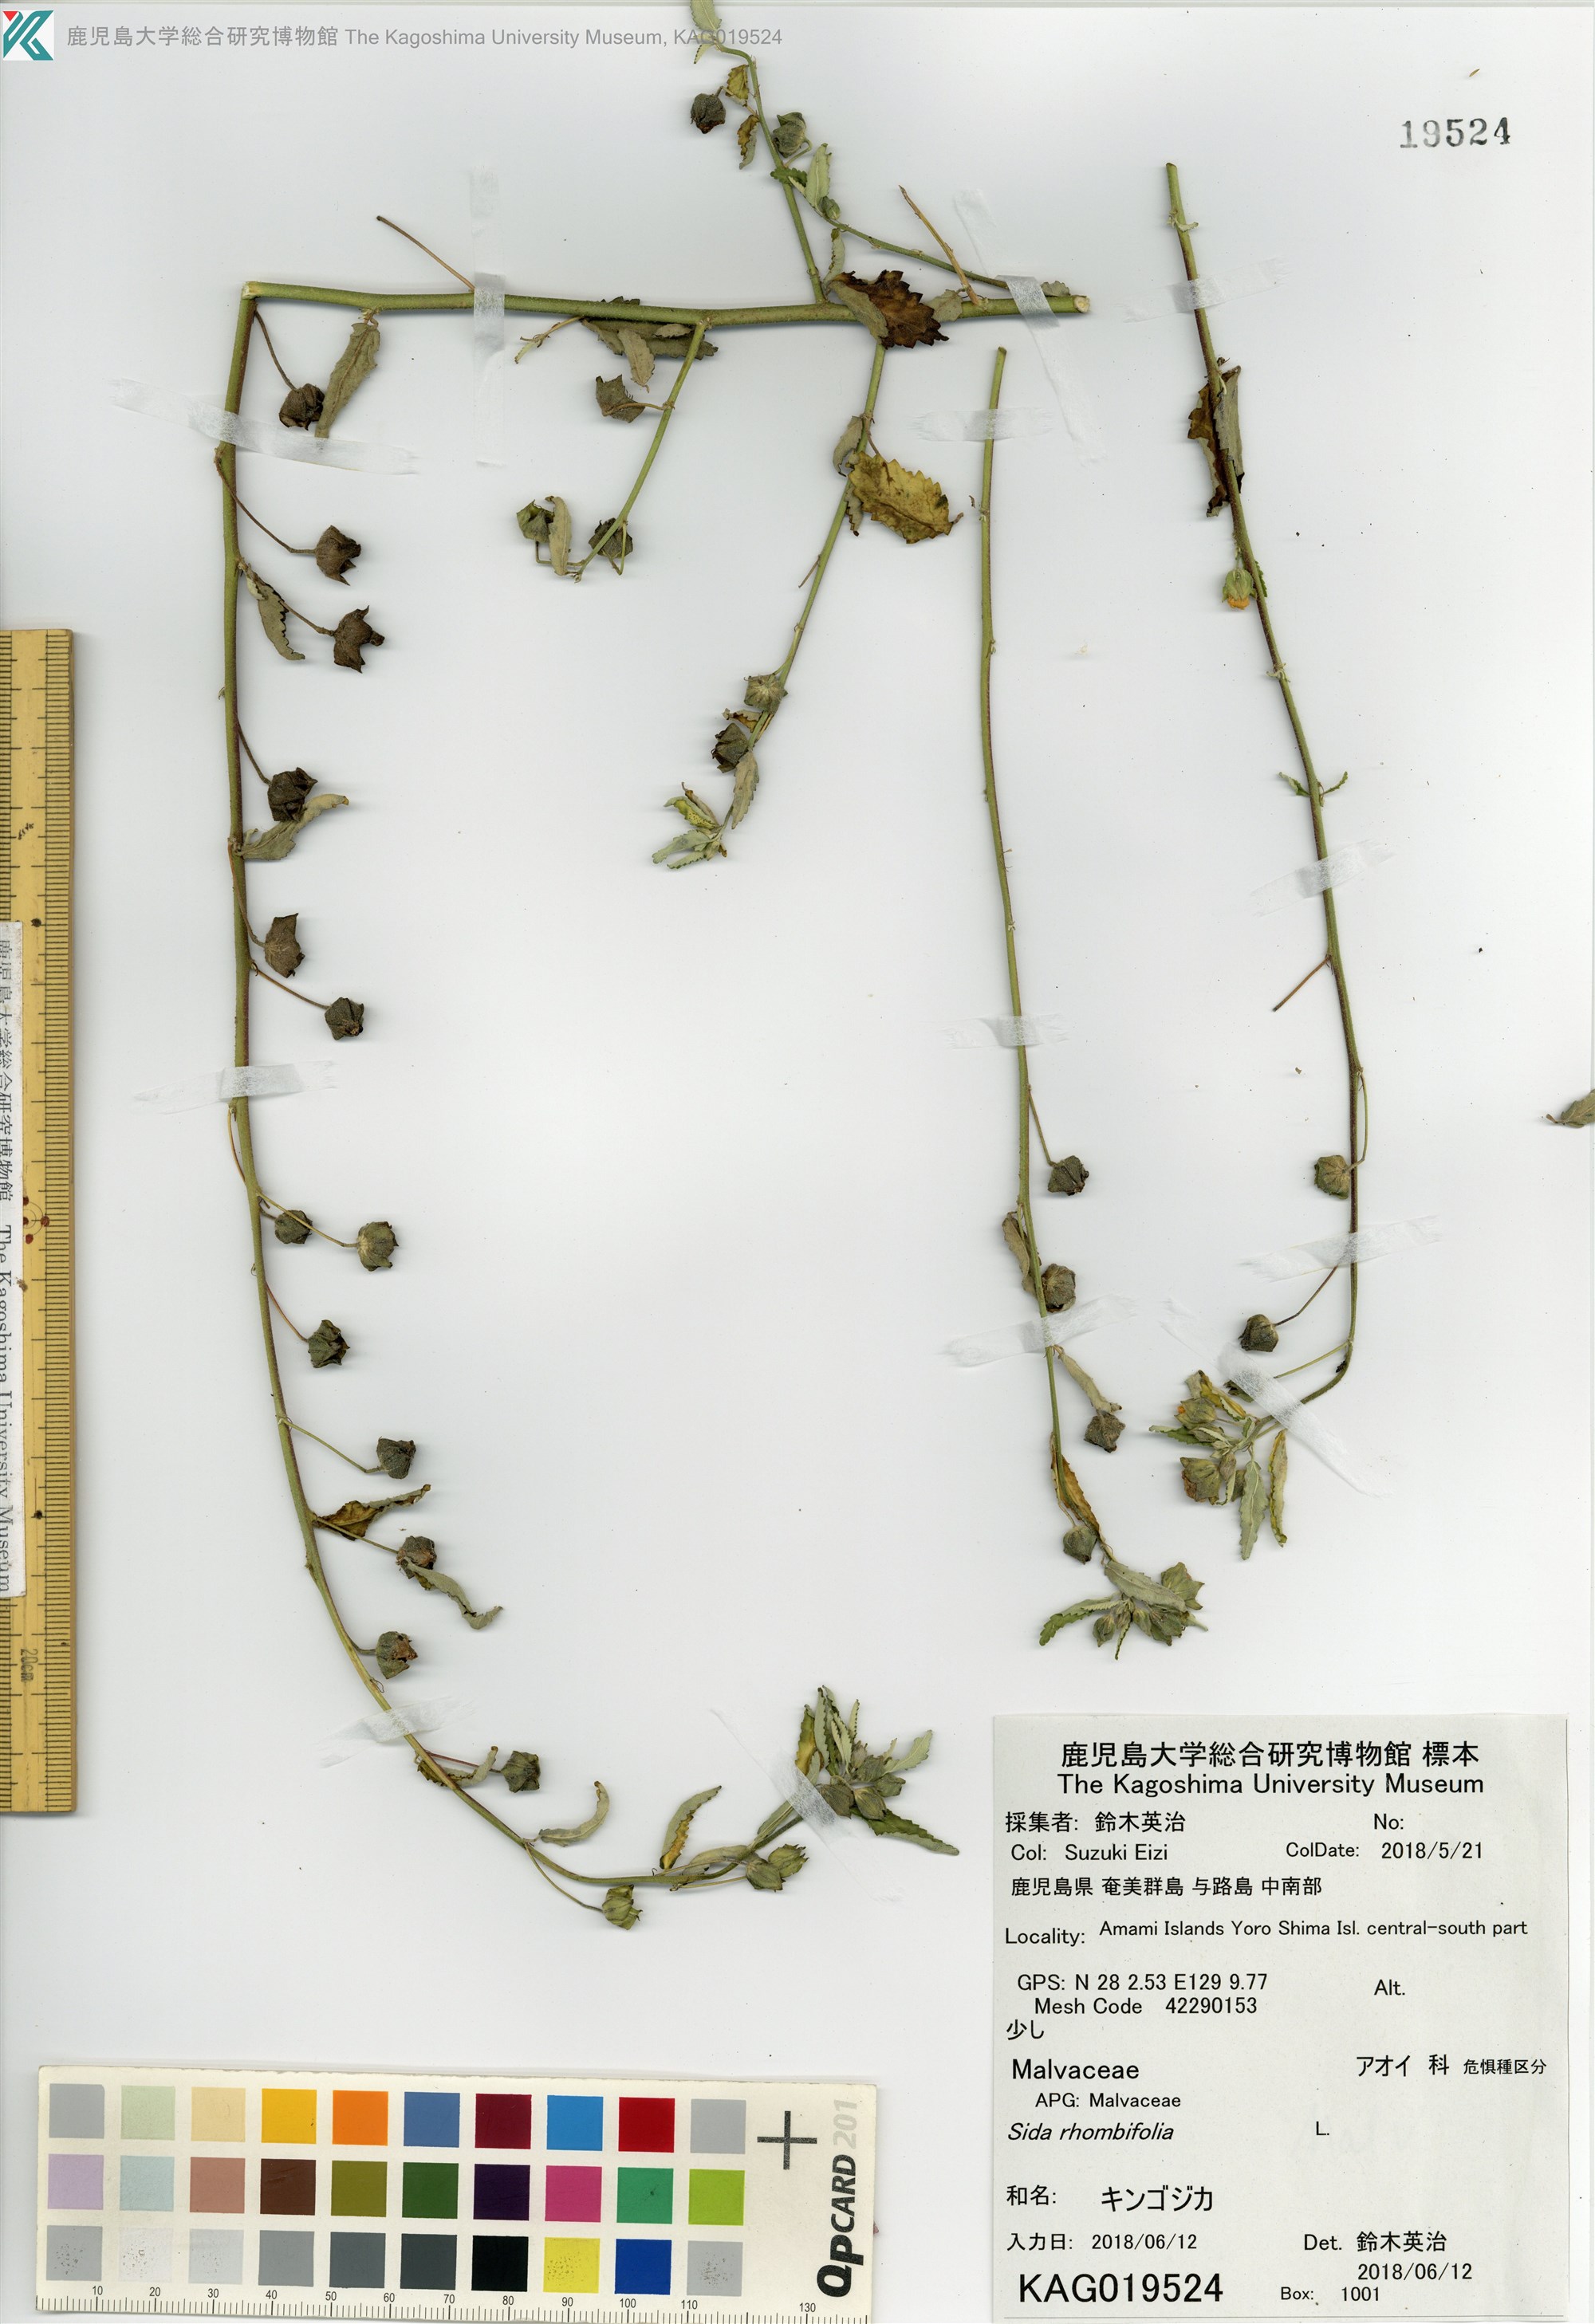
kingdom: Plantae
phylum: Tracheophyta
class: Magnoliopsida
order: Malvales
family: Malvaceae
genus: Sida
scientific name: Sida rhombifolia
